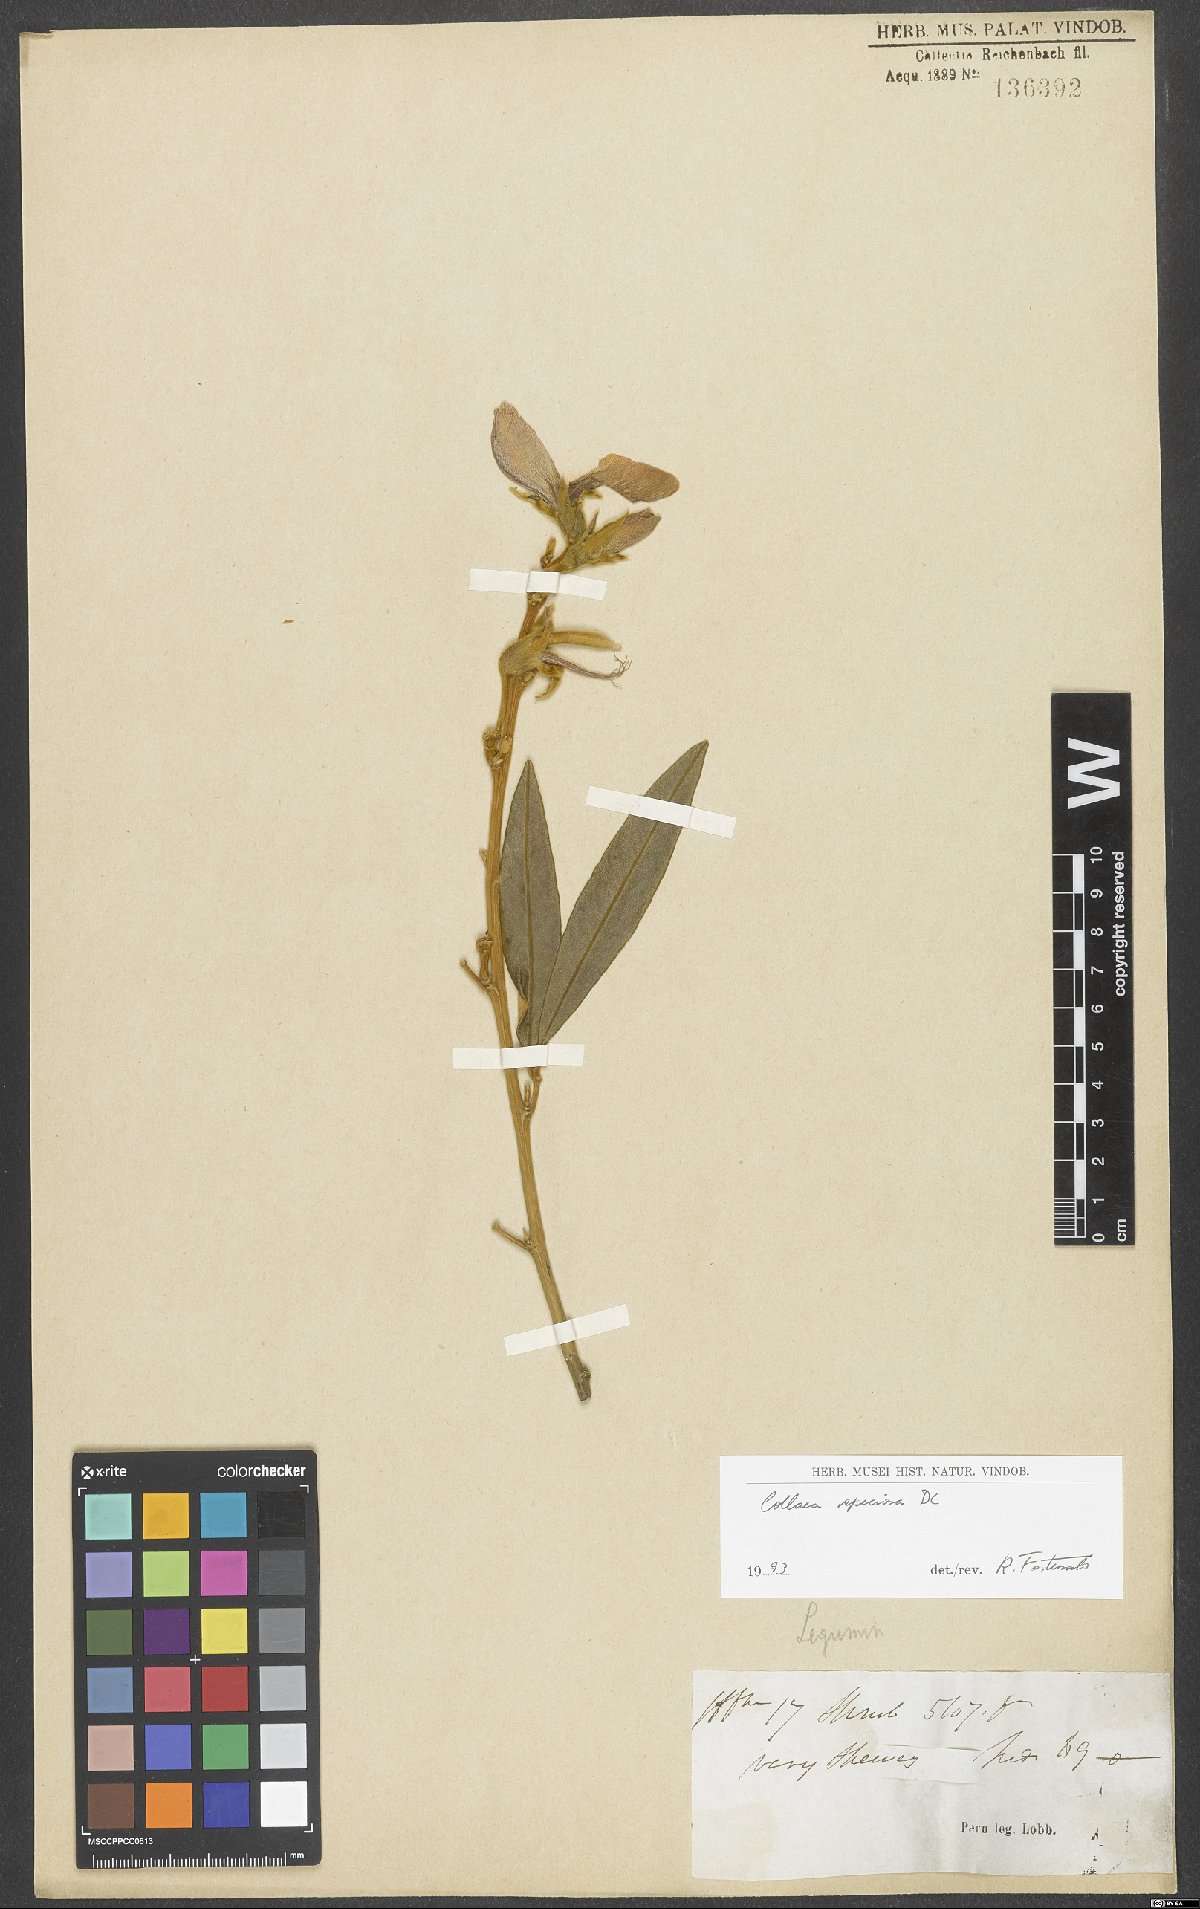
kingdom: Plantae
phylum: Tracheophyta
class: Magnoliopsida
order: Fabales
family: Fabaceae
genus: Collaea
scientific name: Collaea speciosa
